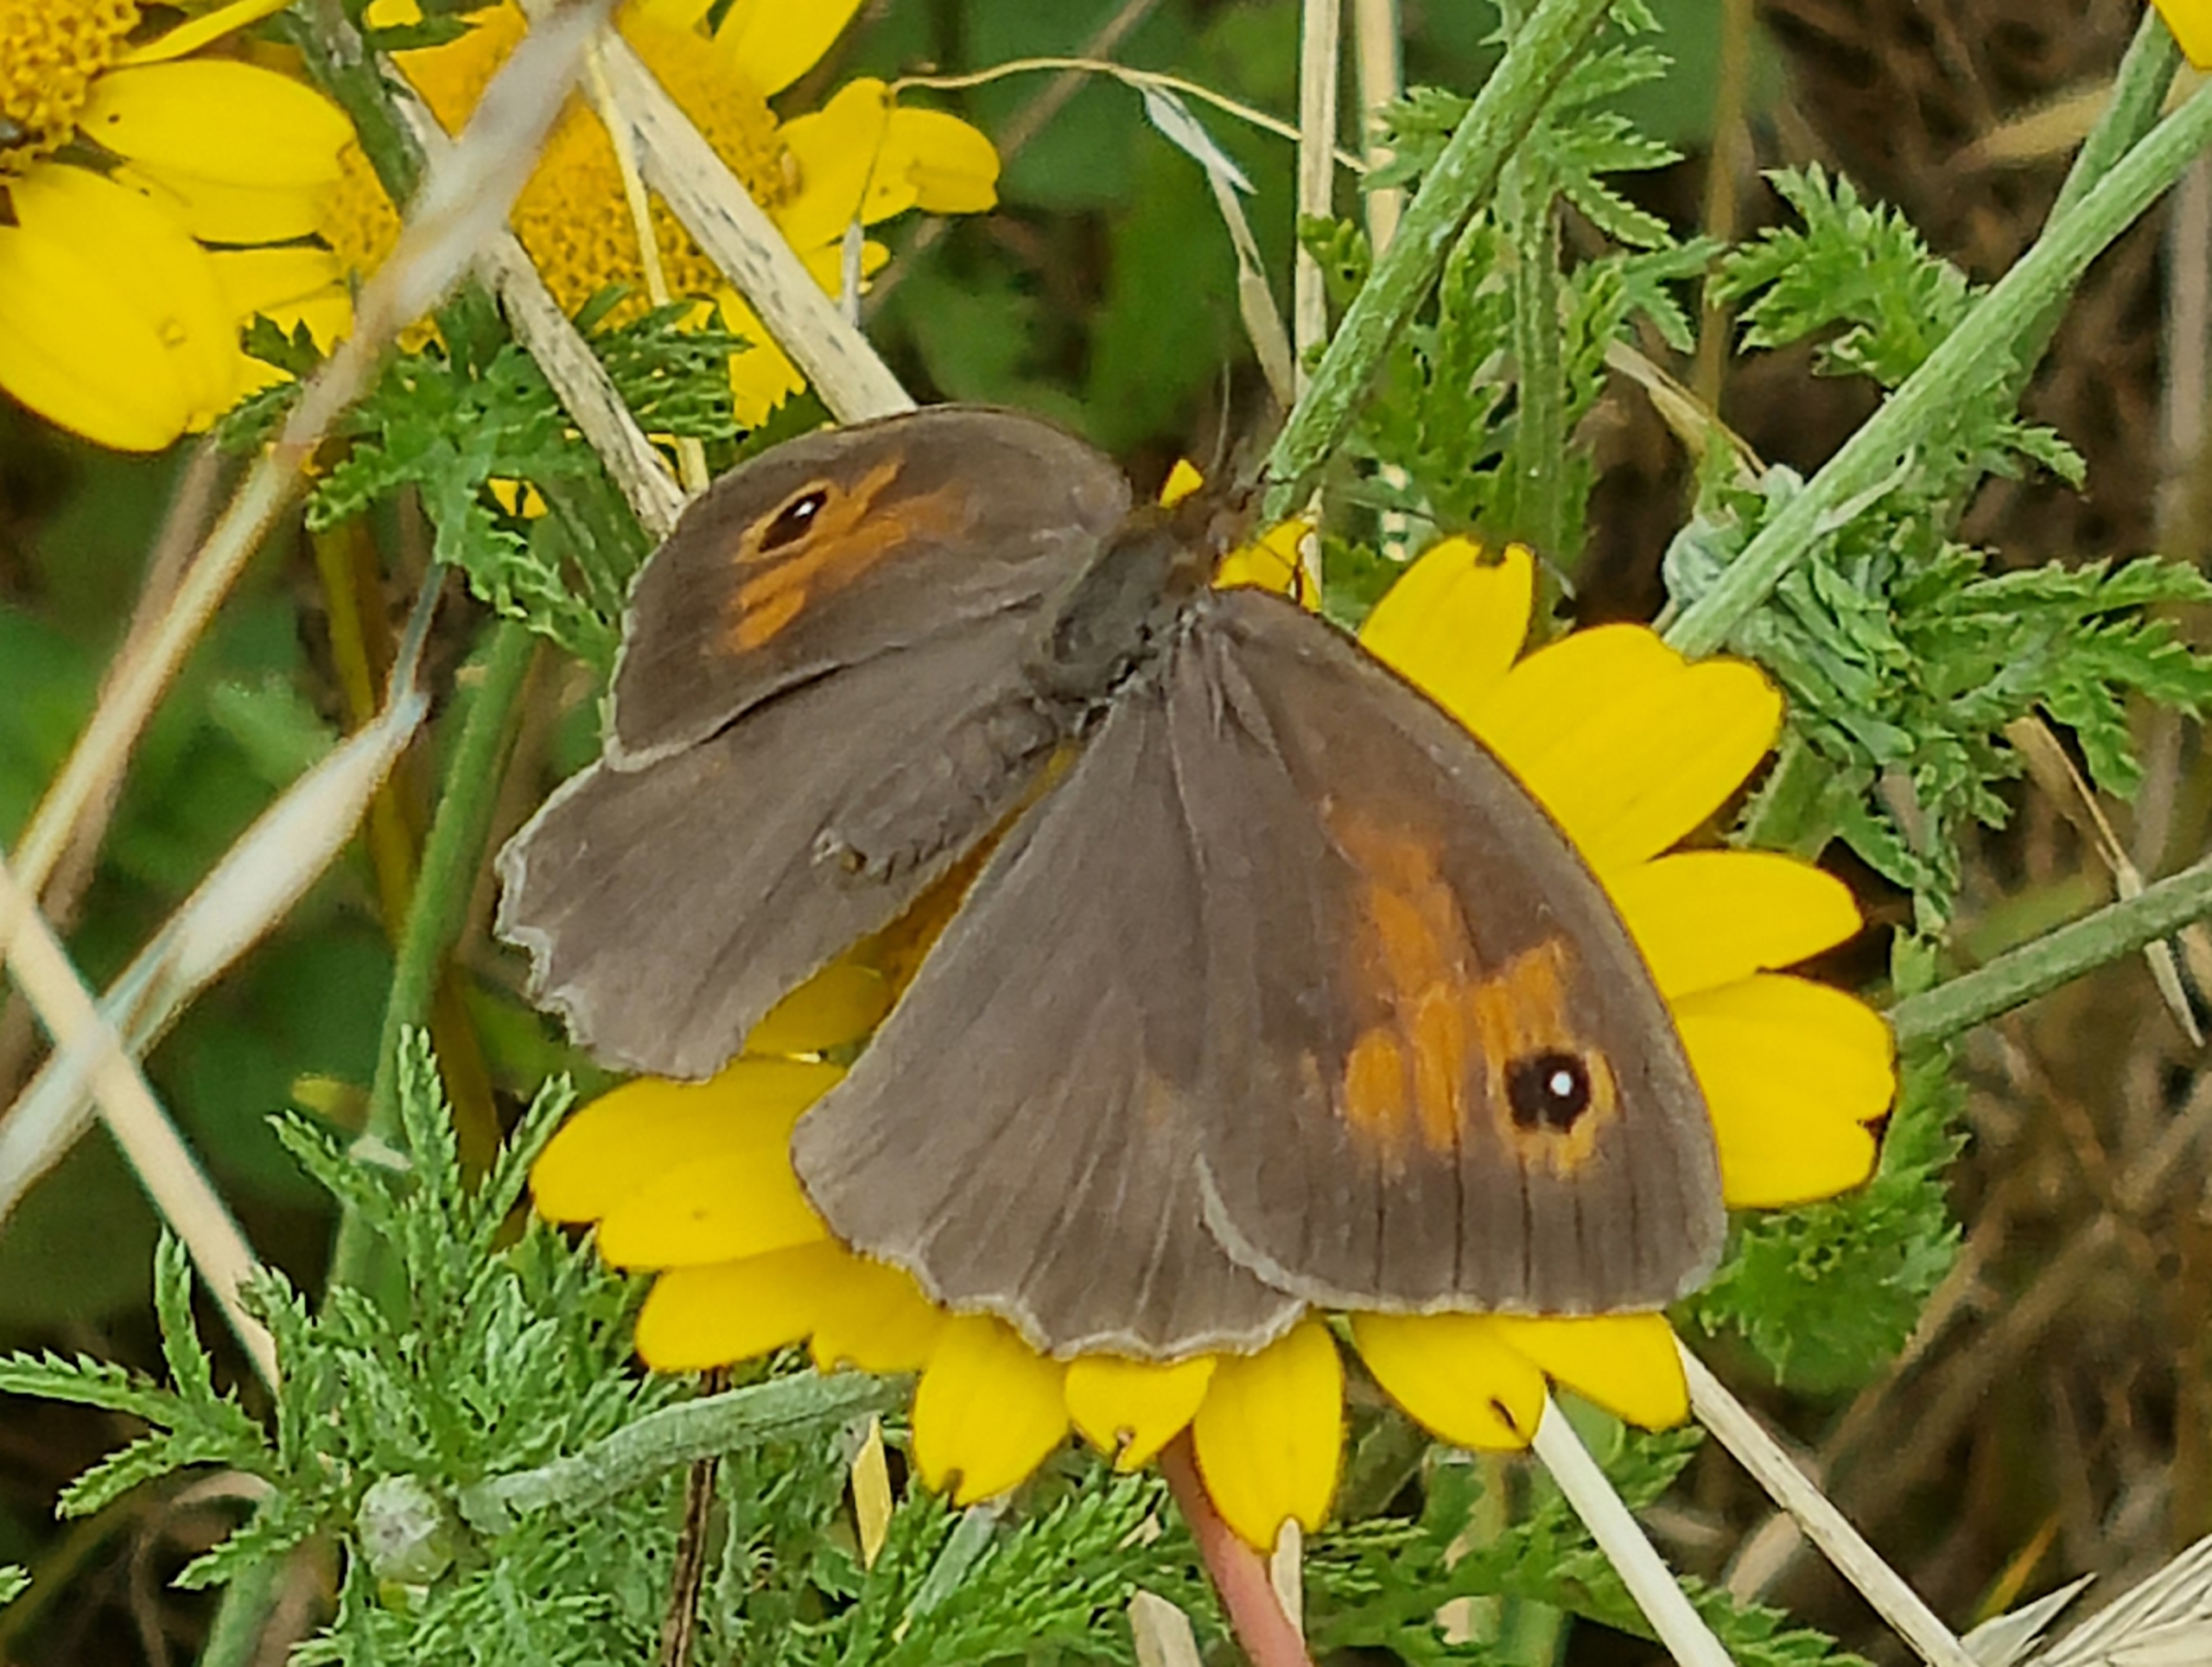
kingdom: Animalia
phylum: Arthropoda
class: Insecta
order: Lepidoptera
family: Nymphalidae
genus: Maniola
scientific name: Maniola jurtina
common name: Græsrandøje
